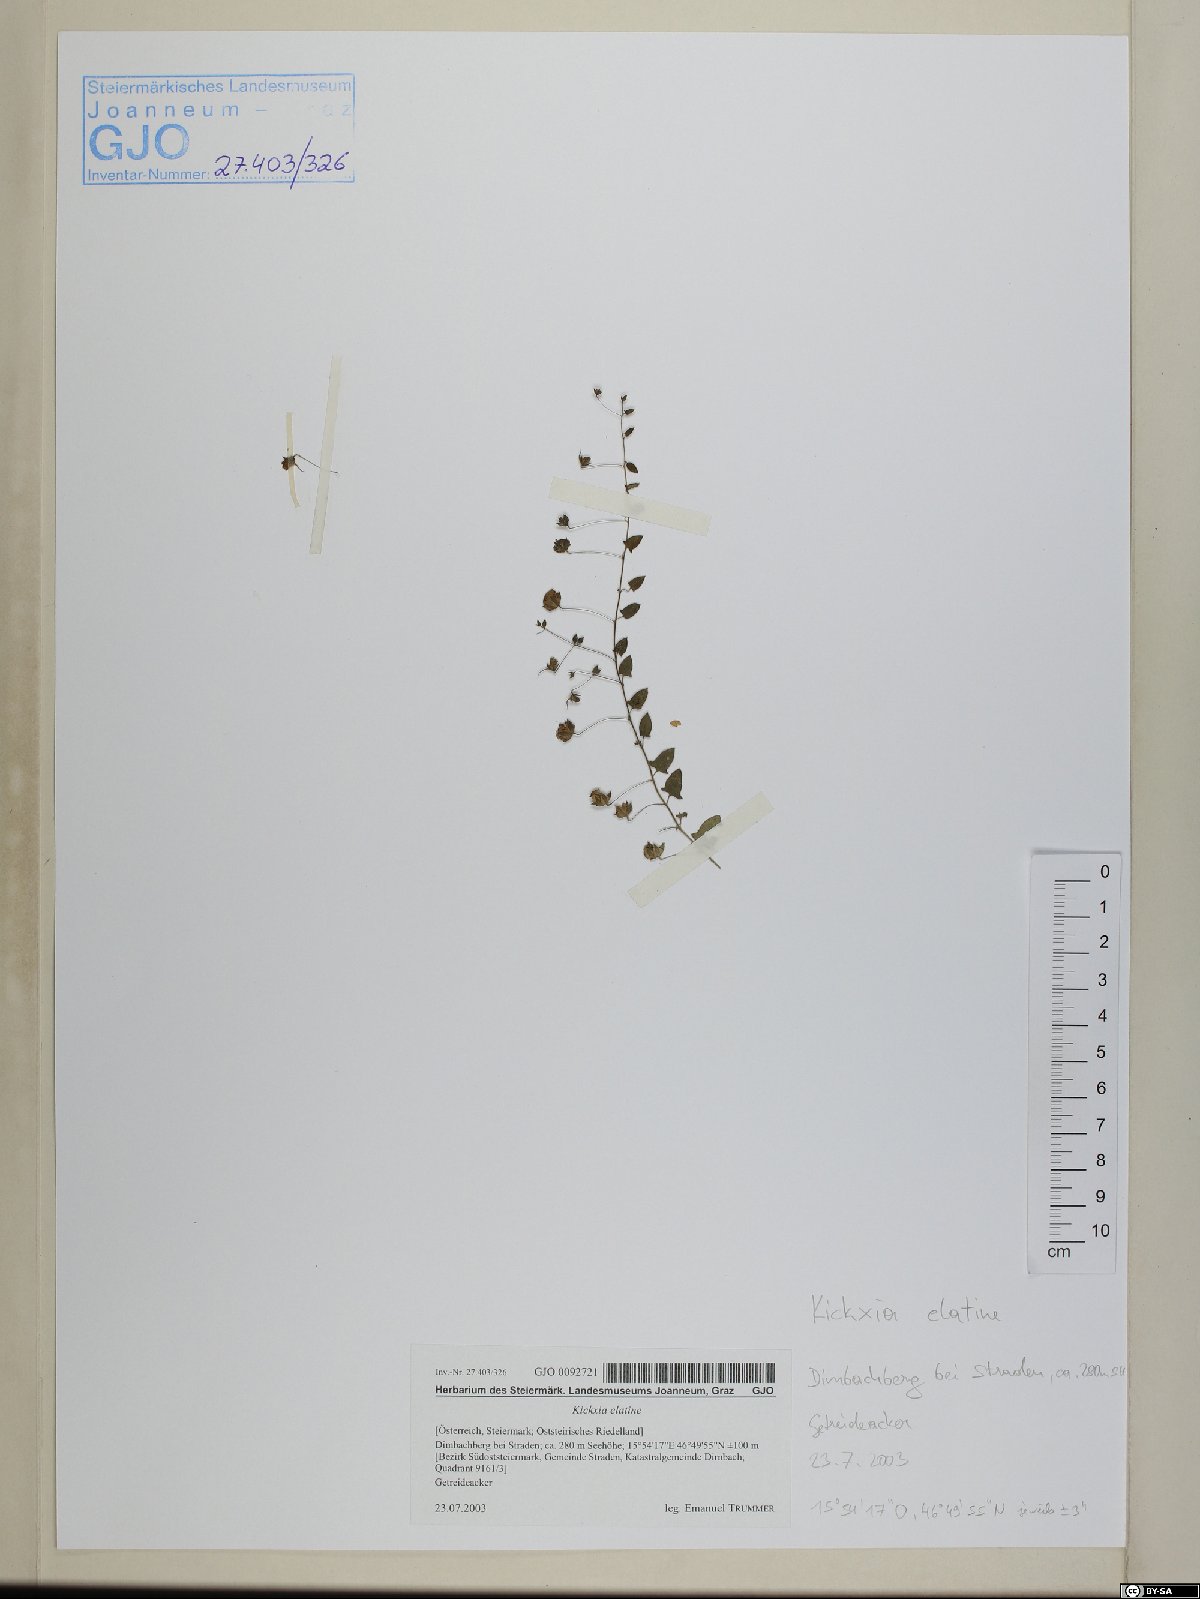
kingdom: Plantae
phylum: Tracheophyta
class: Magnoliopsida
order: Lamiales
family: Plantaginaceae
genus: Kickxia
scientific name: Kickxia elatine
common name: Sharp-leaved fluellen
